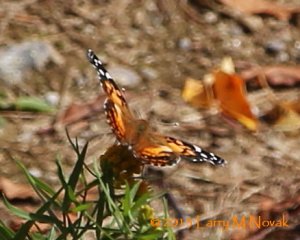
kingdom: Animalia
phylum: Arthropoda
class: Insecta
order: Lepidoptera
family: Nymphalidae
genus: Vanessa
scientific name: Vanessa virginiensis
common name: American Lady
